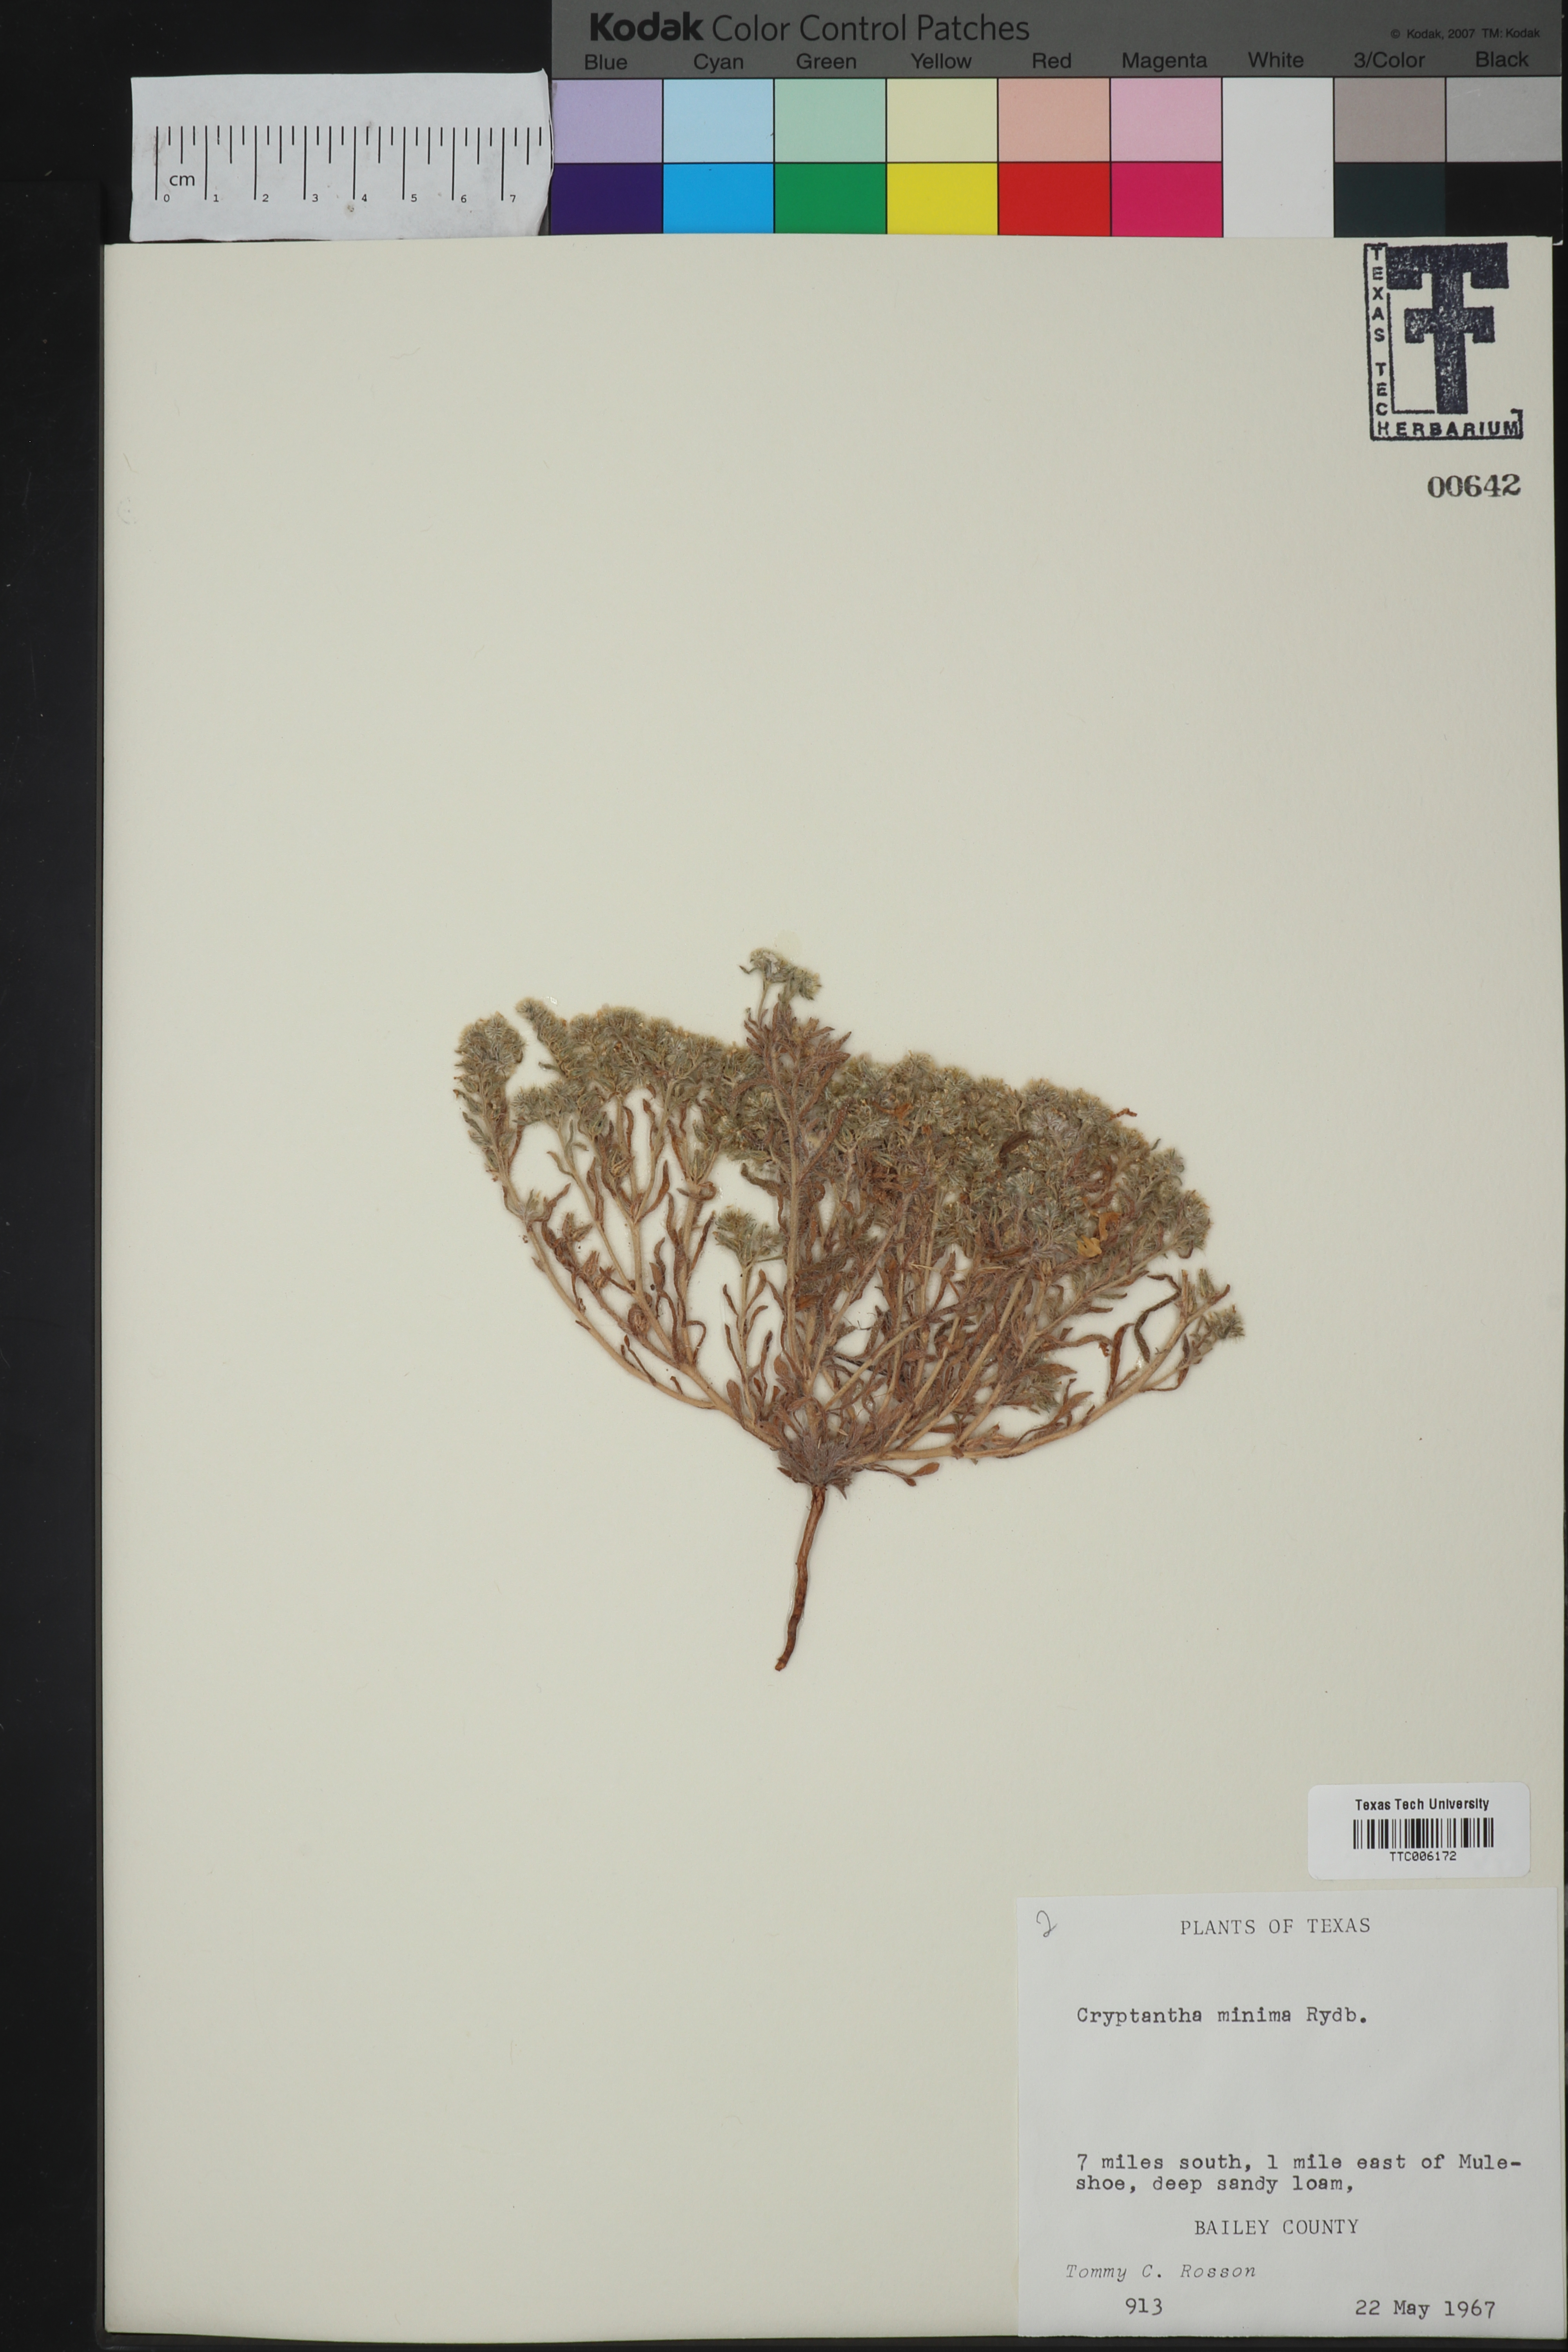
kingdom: Plantae
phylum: Tracheophyta
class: Magnoliopsida
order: Boraginales
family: Boraginaceae
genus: Cryptantha
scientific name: Cryptantha minima
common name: Little cat's-eye
